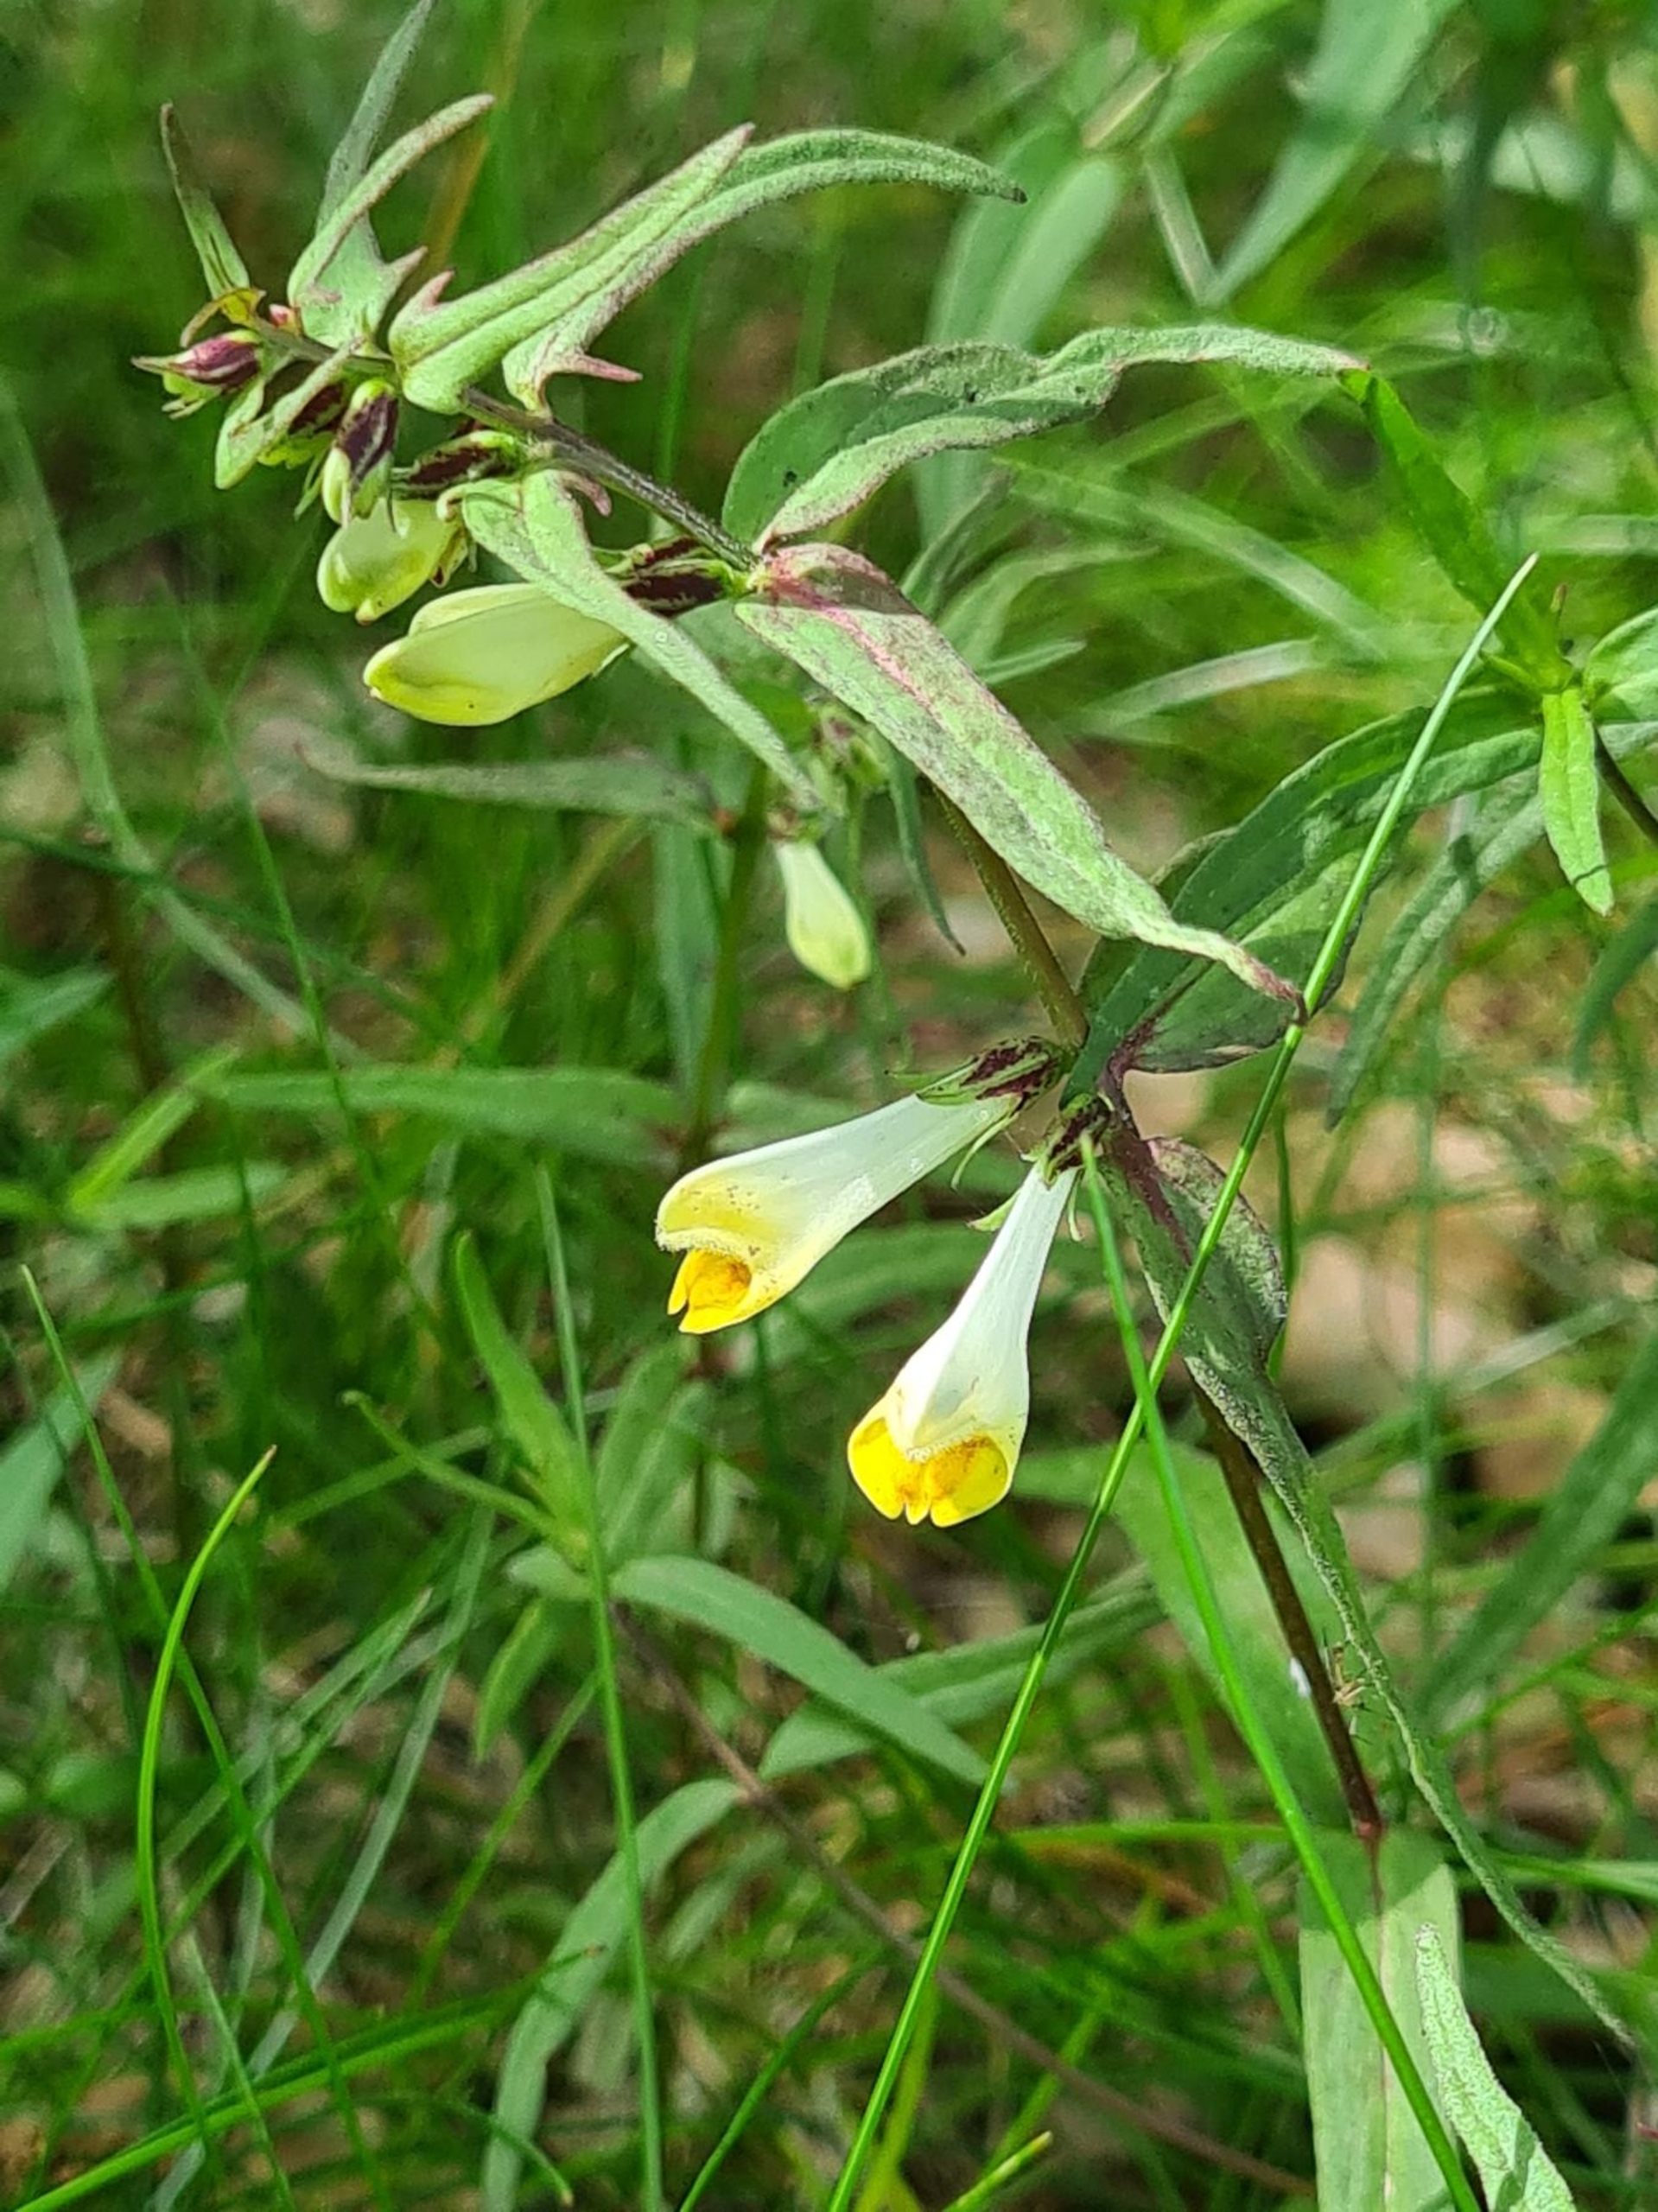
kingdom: Plantae
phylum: Tracheophyta
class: Magnoliopsida
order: Lamiales
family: Orobanchaceae
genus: Melampyrum
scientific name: Melampyrum pratense
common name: Almindelig kohvede
